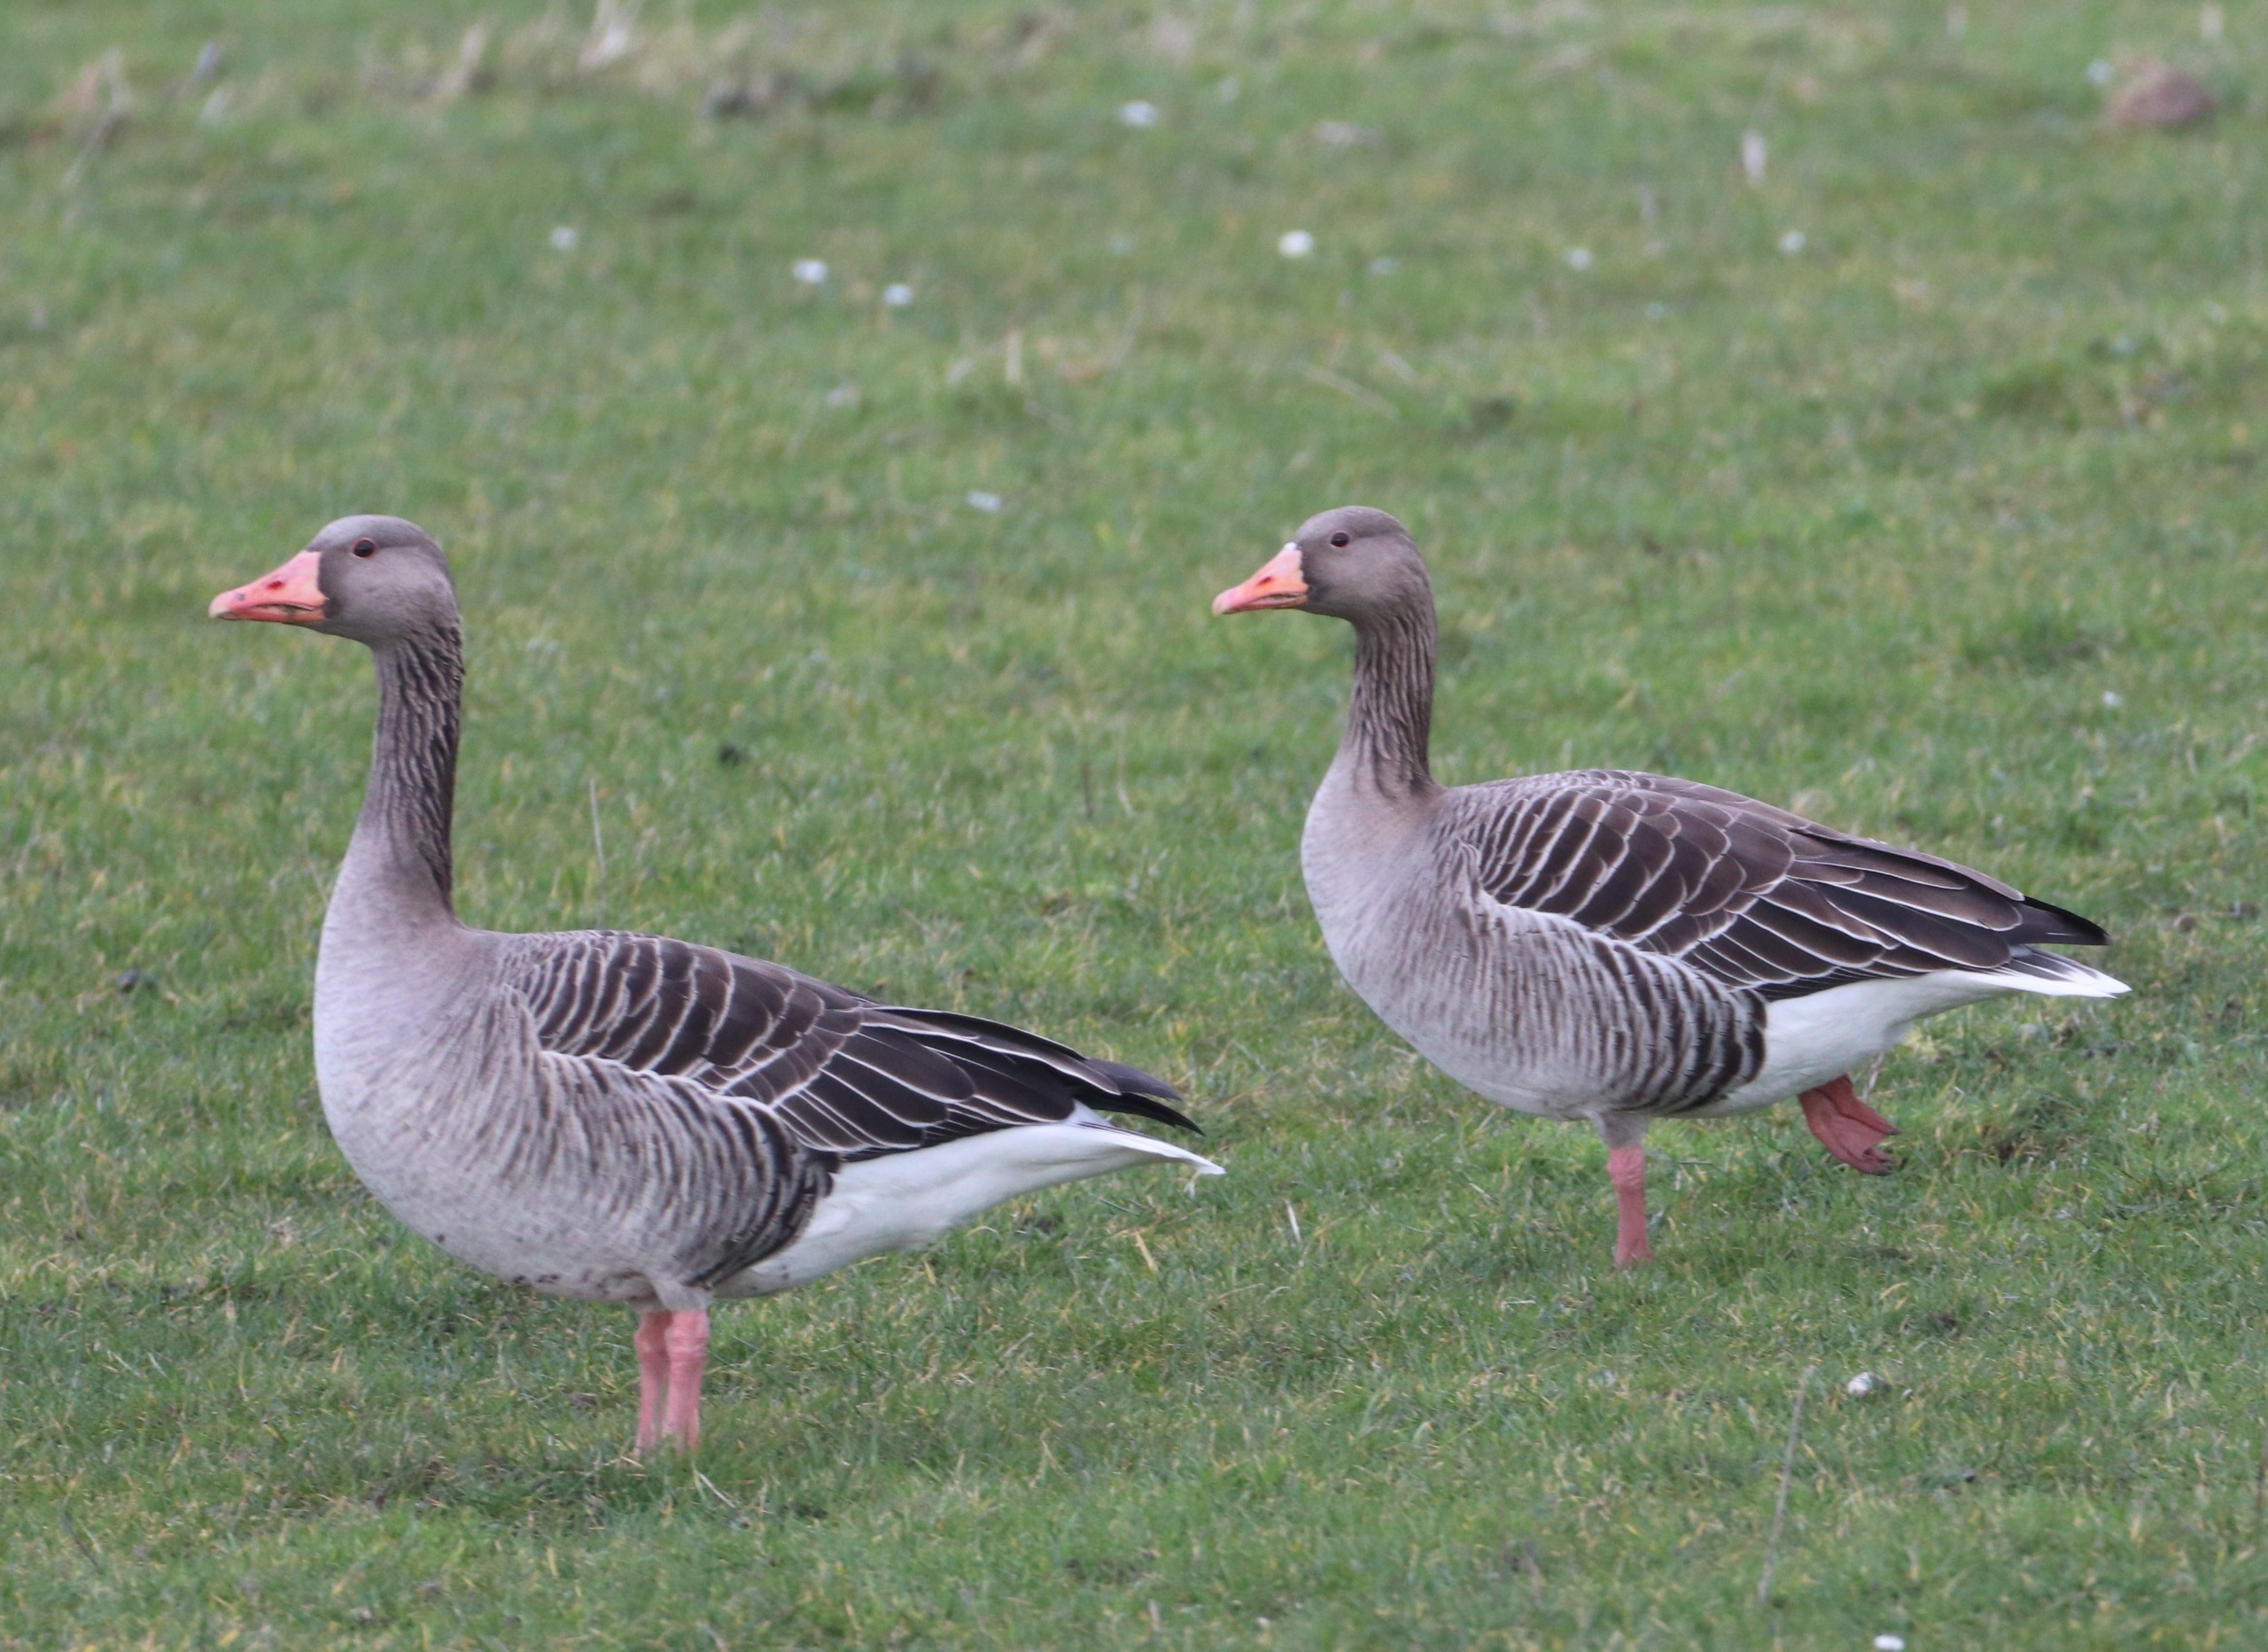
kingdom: Animalia
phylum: Chordata
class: Aves
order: Anseriformes
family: Anatidae
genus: Anser
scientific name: Anser anser
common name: Grågås
